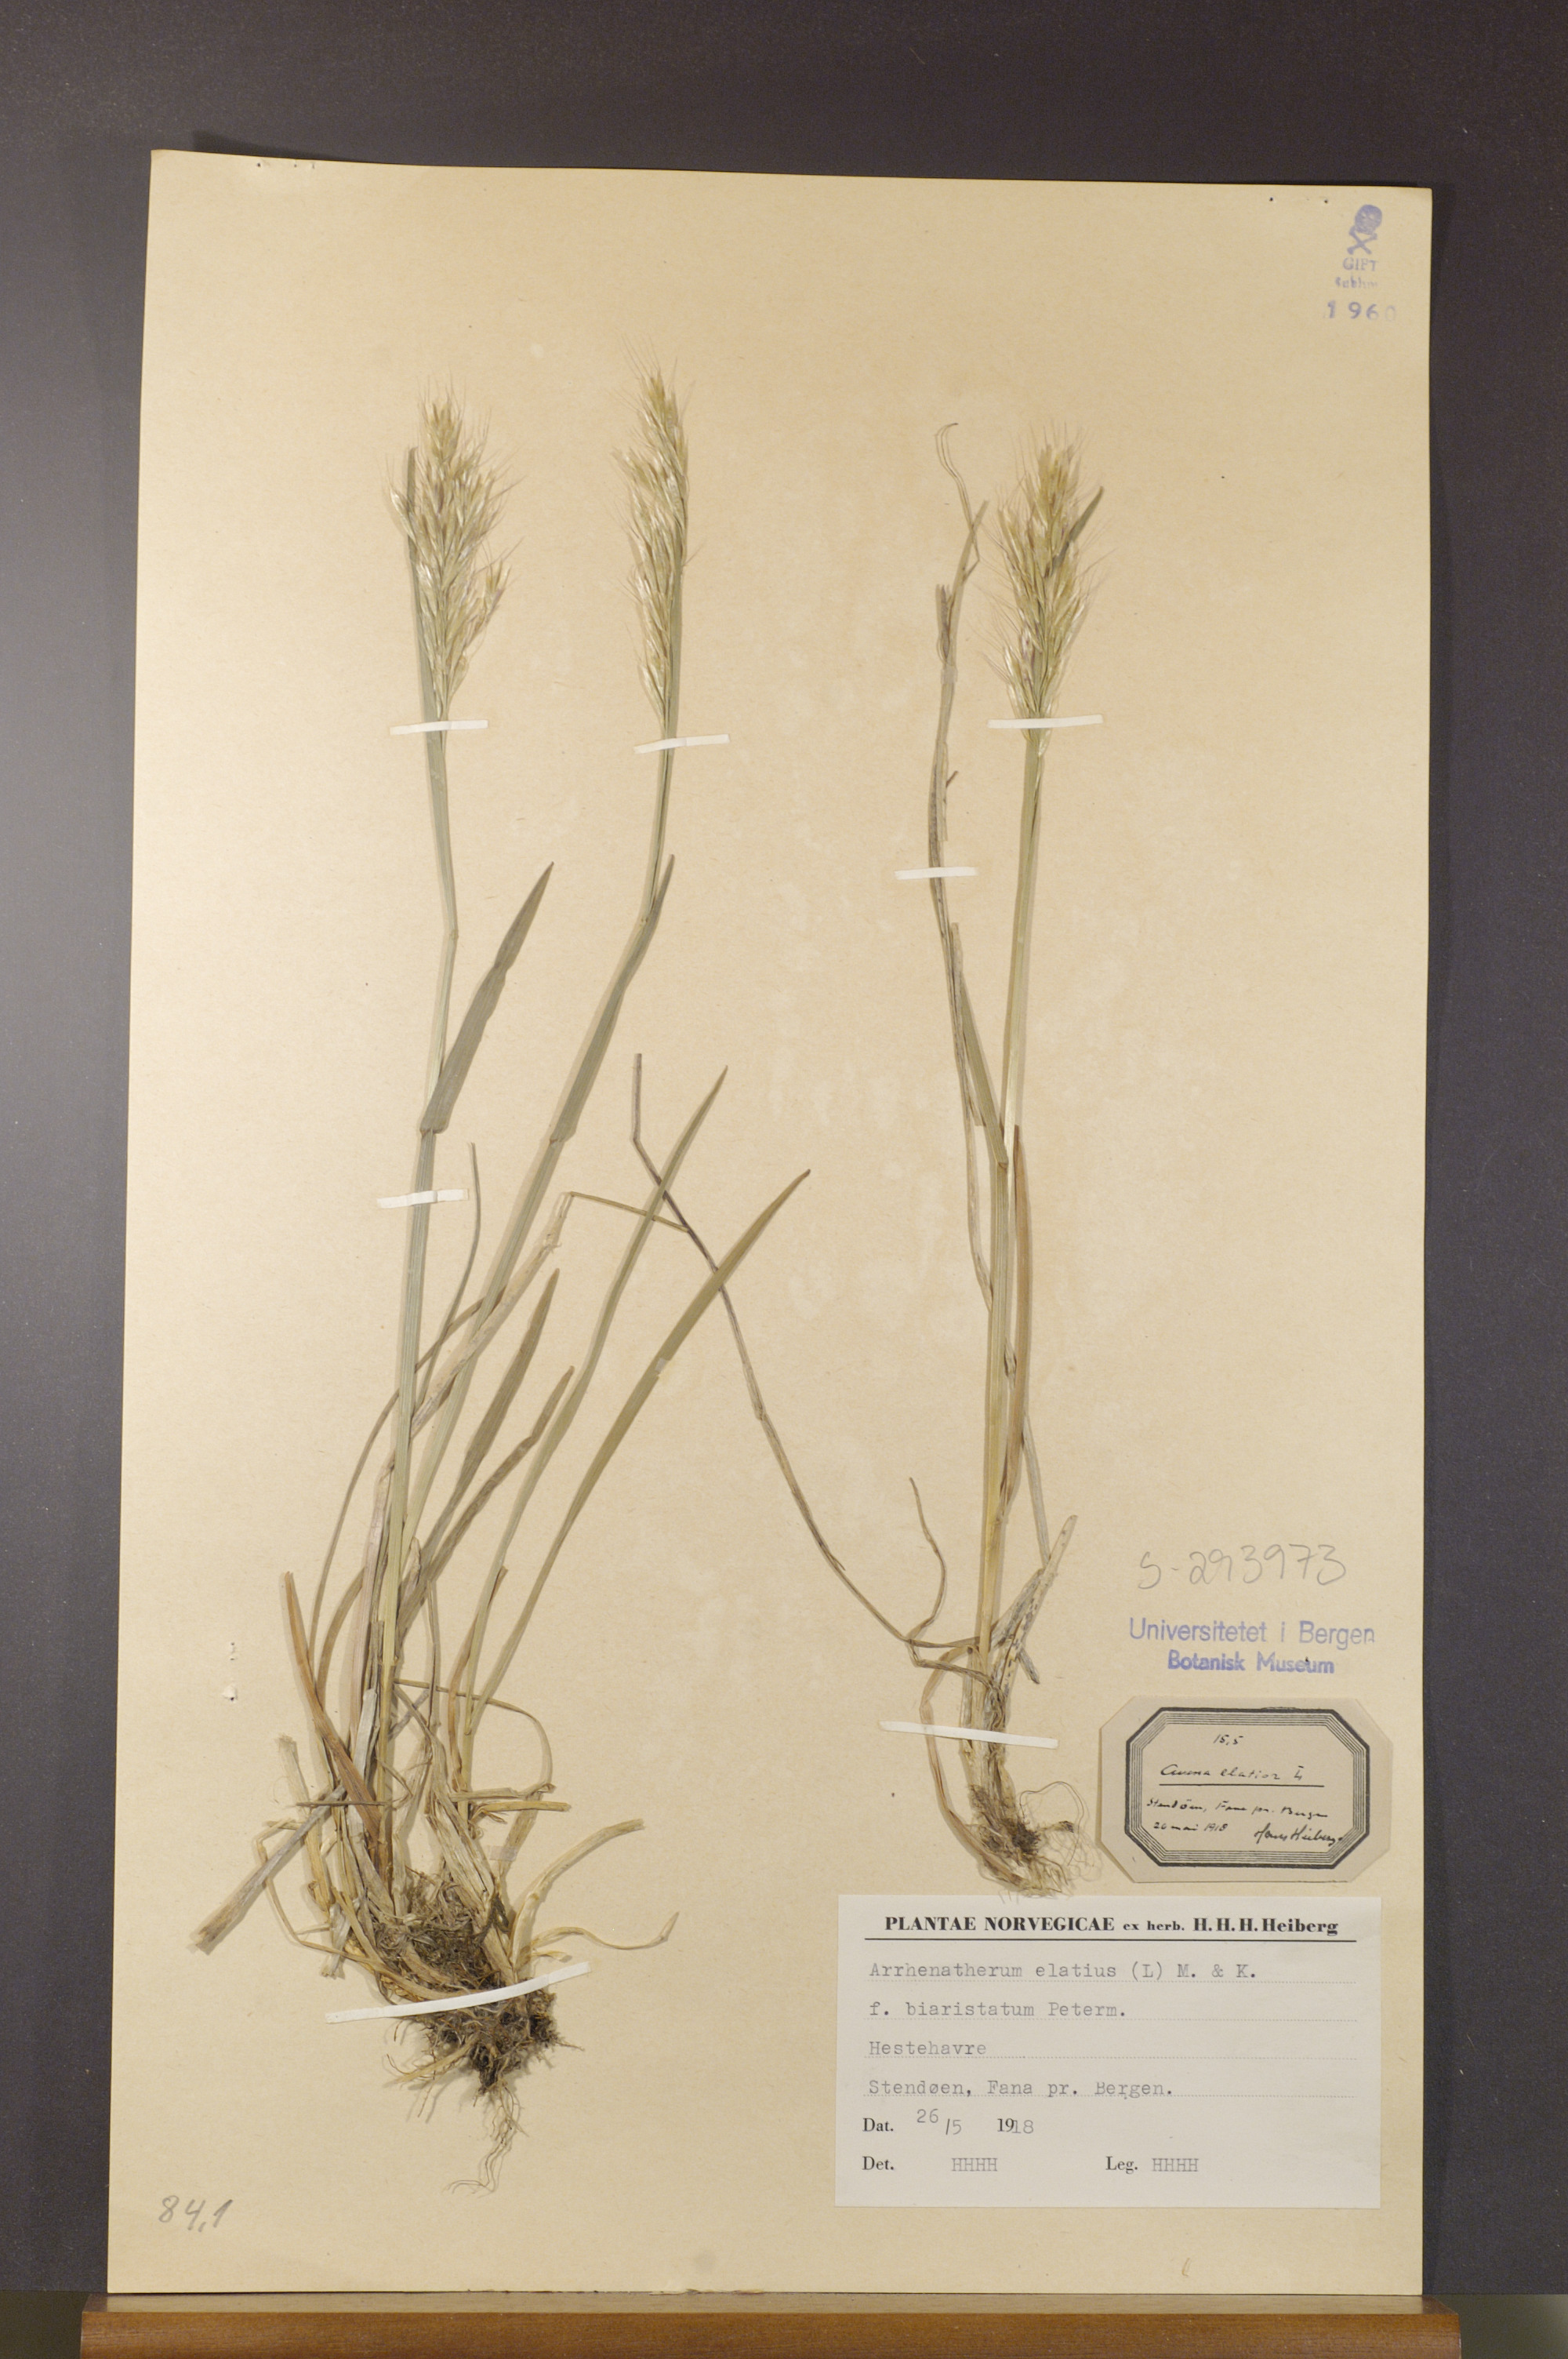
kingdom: Plantae
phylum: Tracheophyta
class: Liliopsida
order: Poales
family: Poaceae
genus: Arrhenatherum
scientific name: Arrhenatherum elatius
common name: Tall oatgrass
